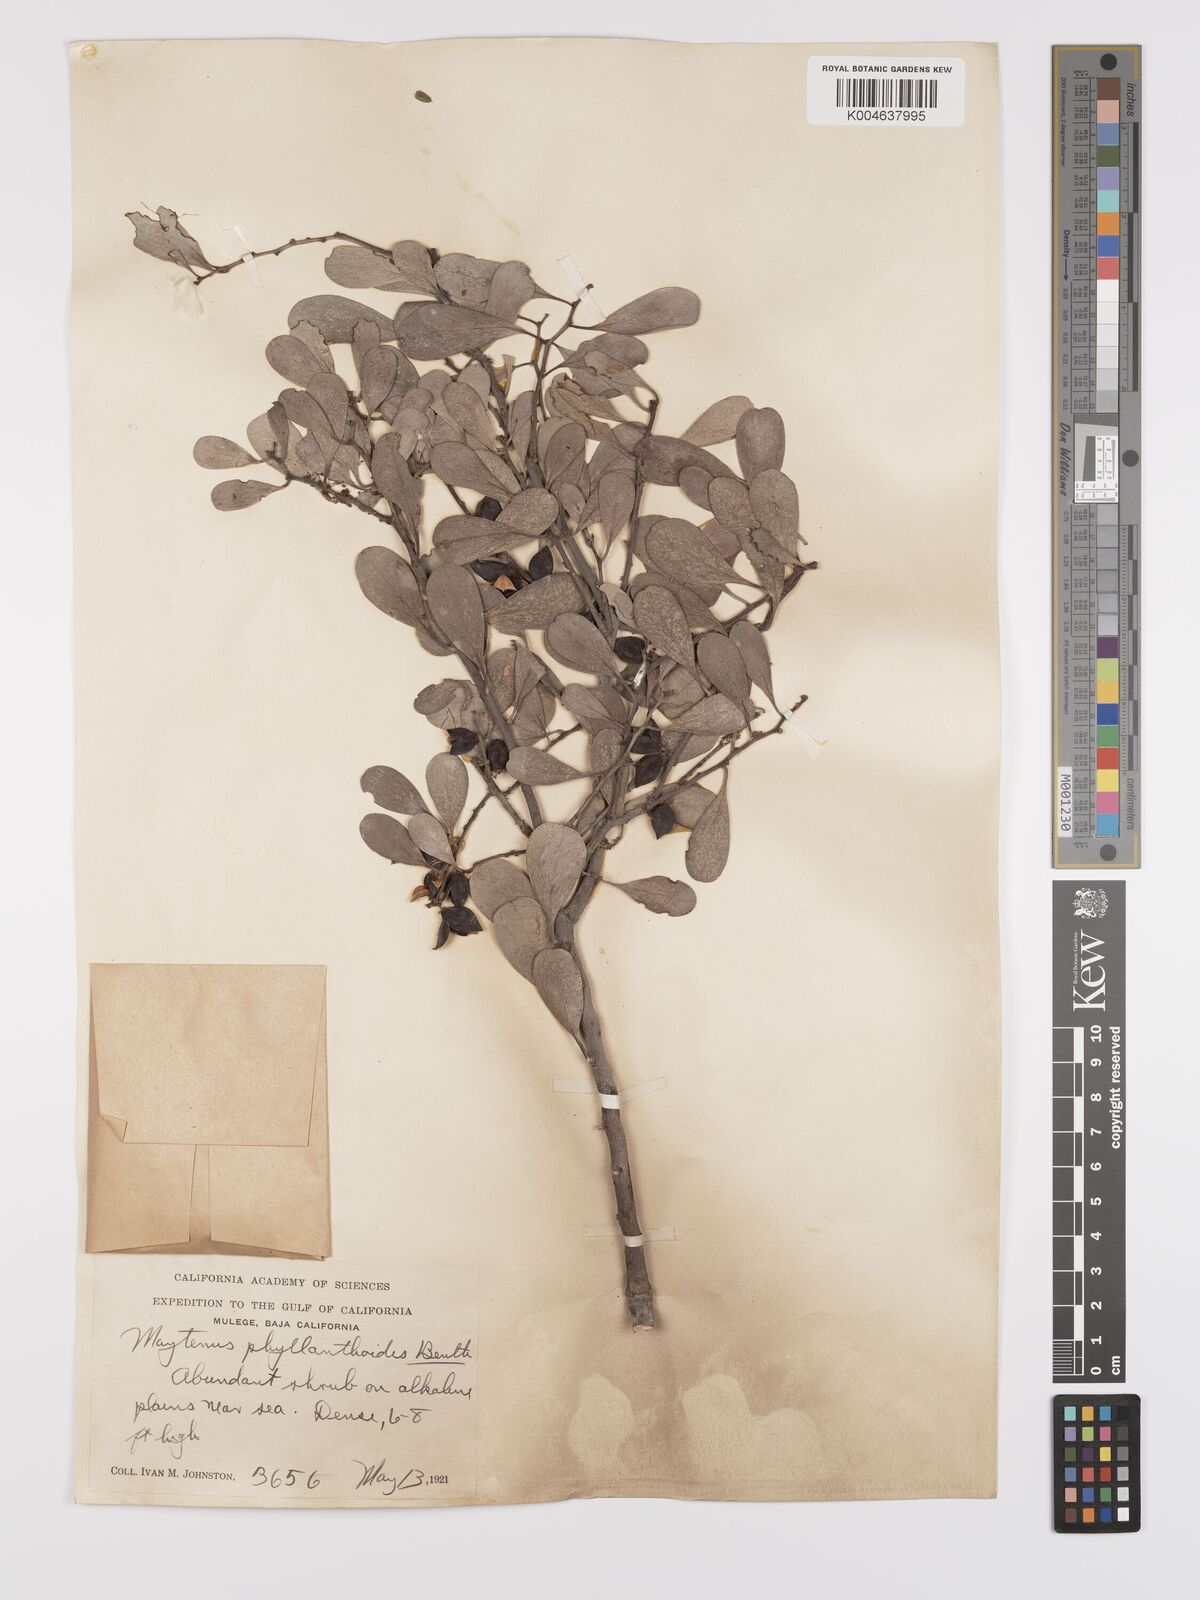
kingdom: Plantae
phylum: Tracheophyta
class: Magnoliopsida
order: Celastrales
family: Celastraceae
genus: Tricerma
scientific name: Tricerma phyllanthoides
